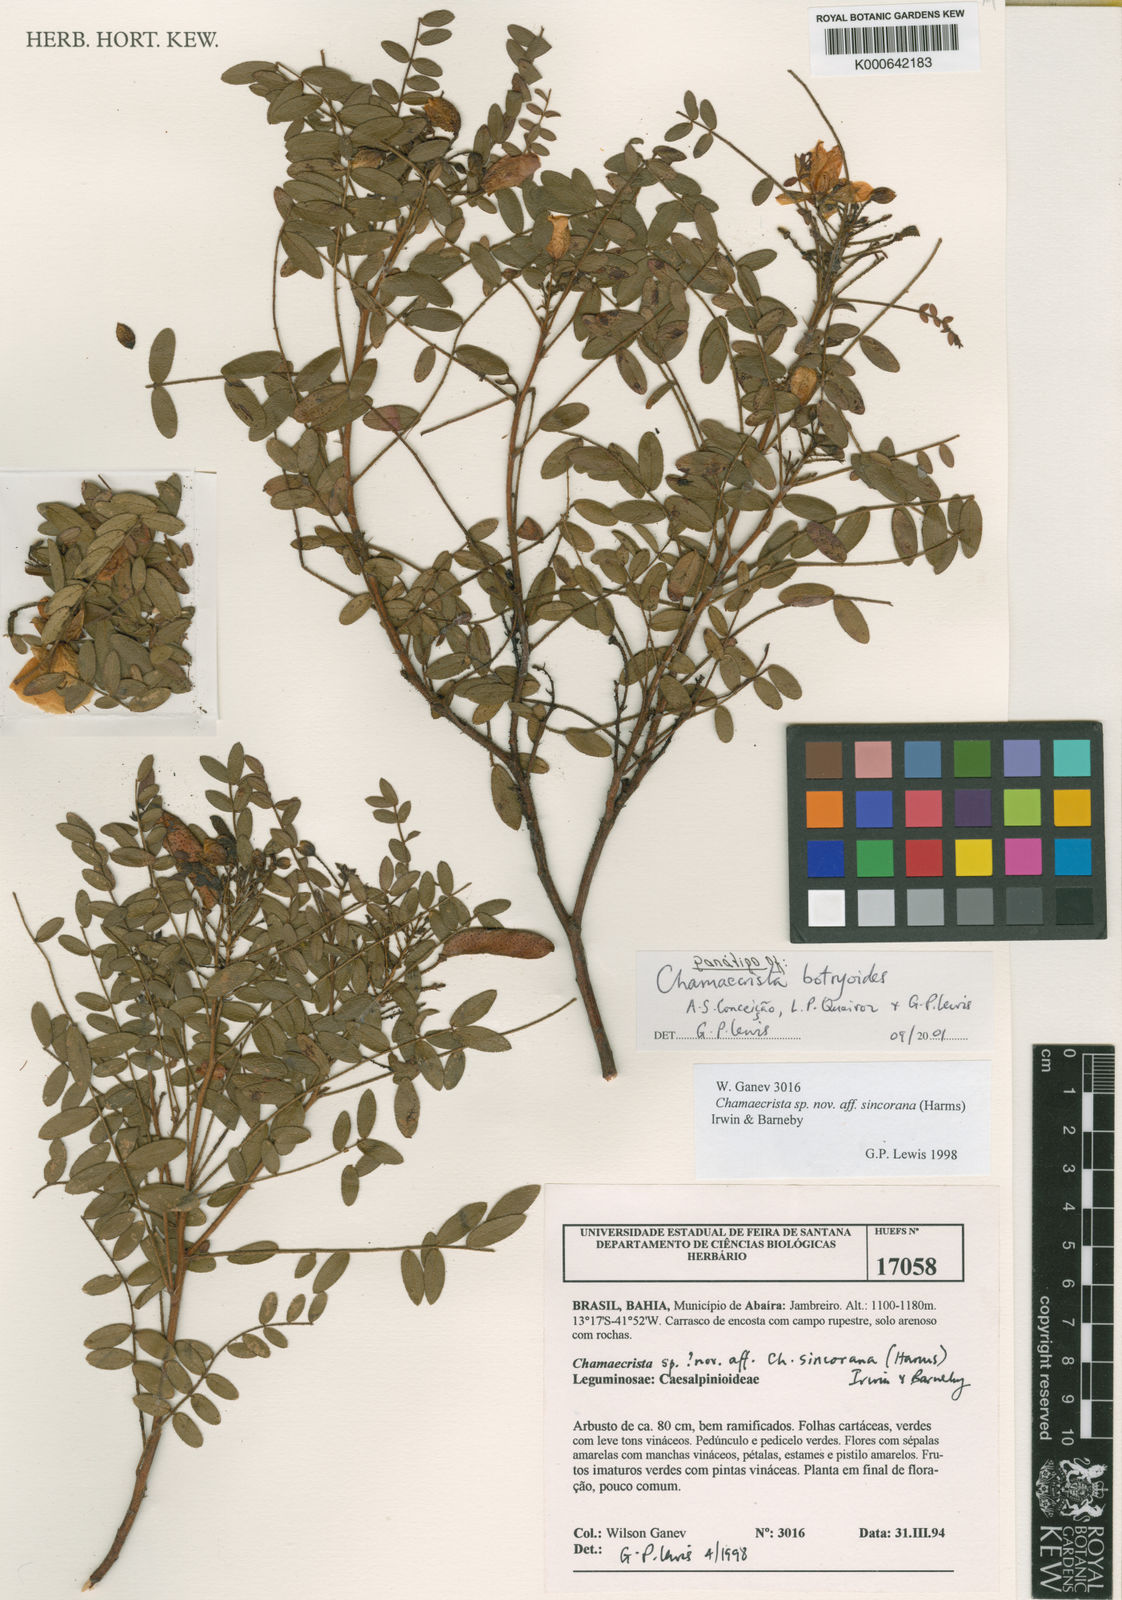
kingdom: Plantae
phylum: Tracheophyta
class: Magnoliopsida
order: Fabales
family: Fabaceae
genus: Chamaecrista
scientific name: Chamaecrista botryoides
